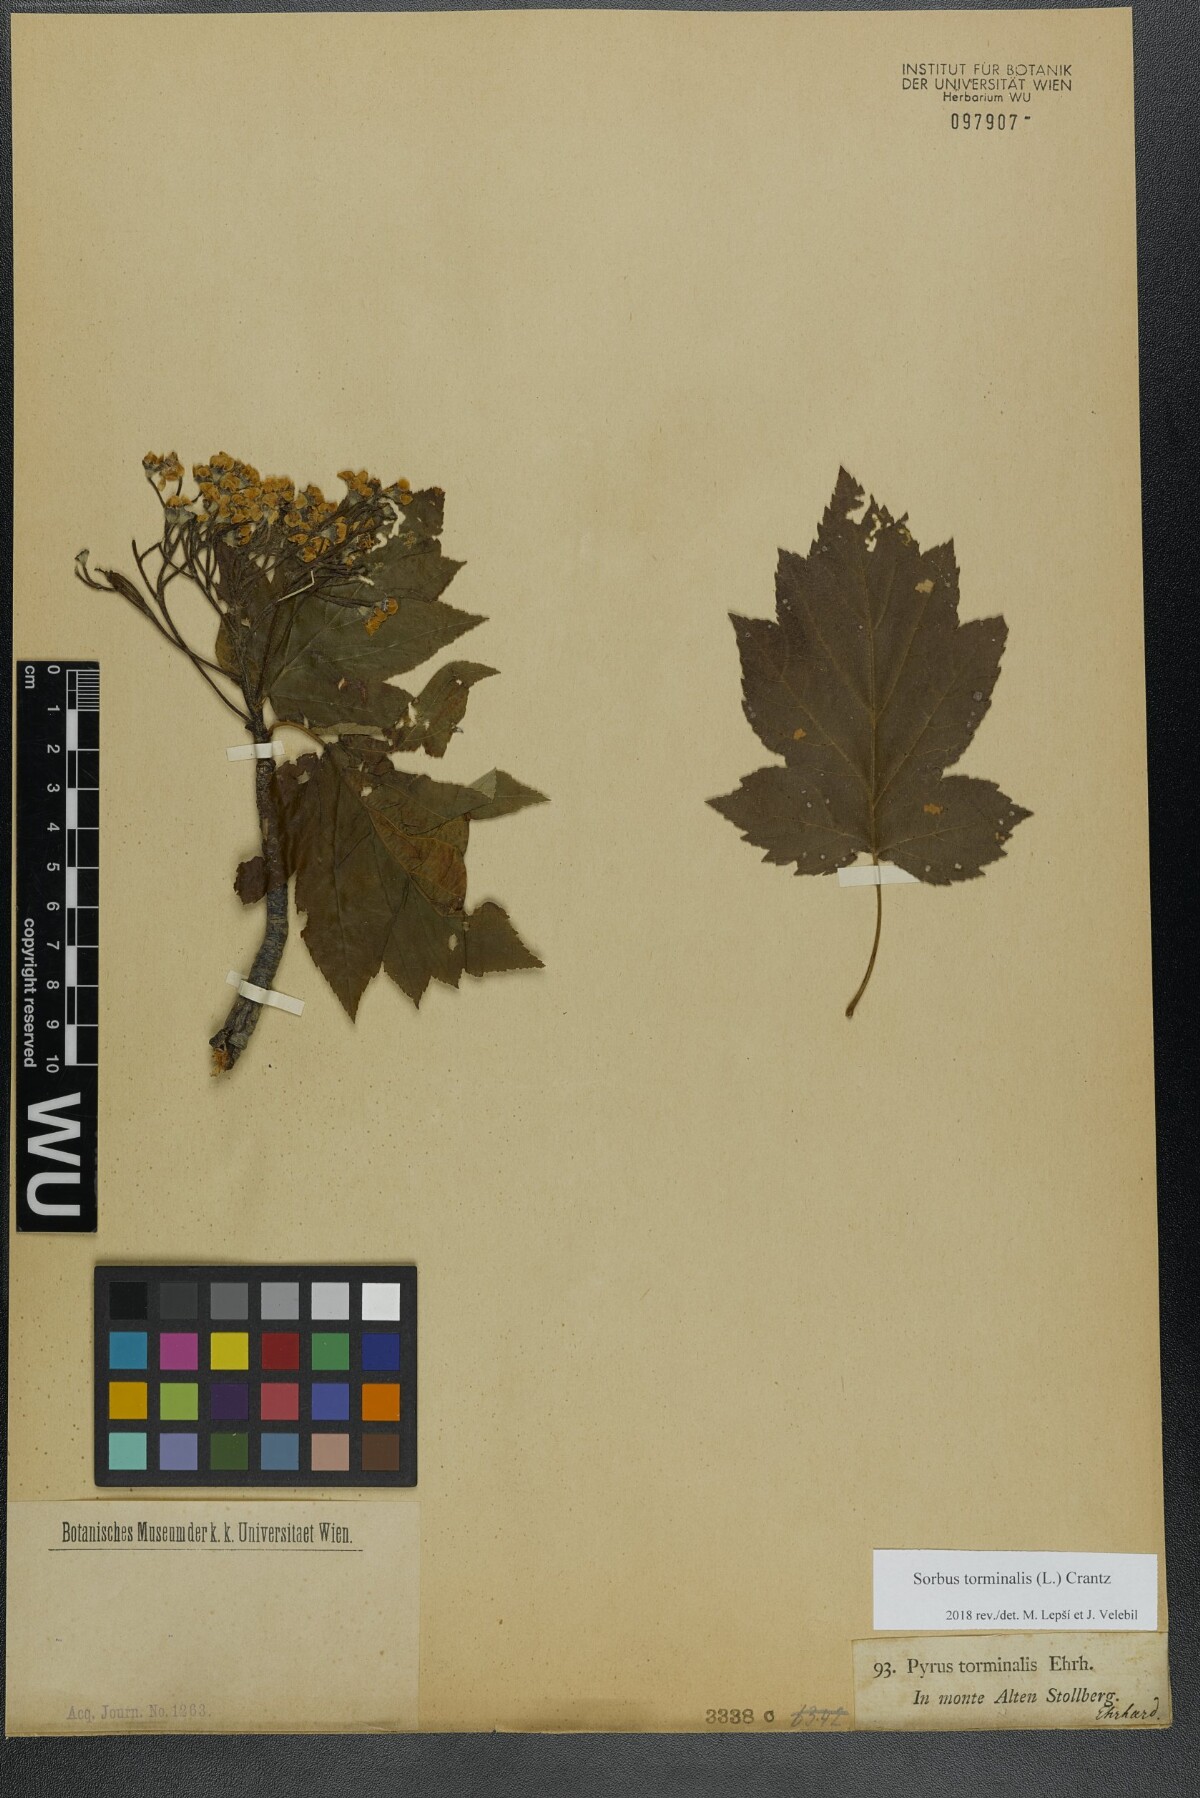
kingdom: Plantae
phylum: Tracheophyta
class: Magnoliopsida
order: Rosales
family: Rosaceae
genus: Torminalis
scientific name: Torminalis glaberrima
